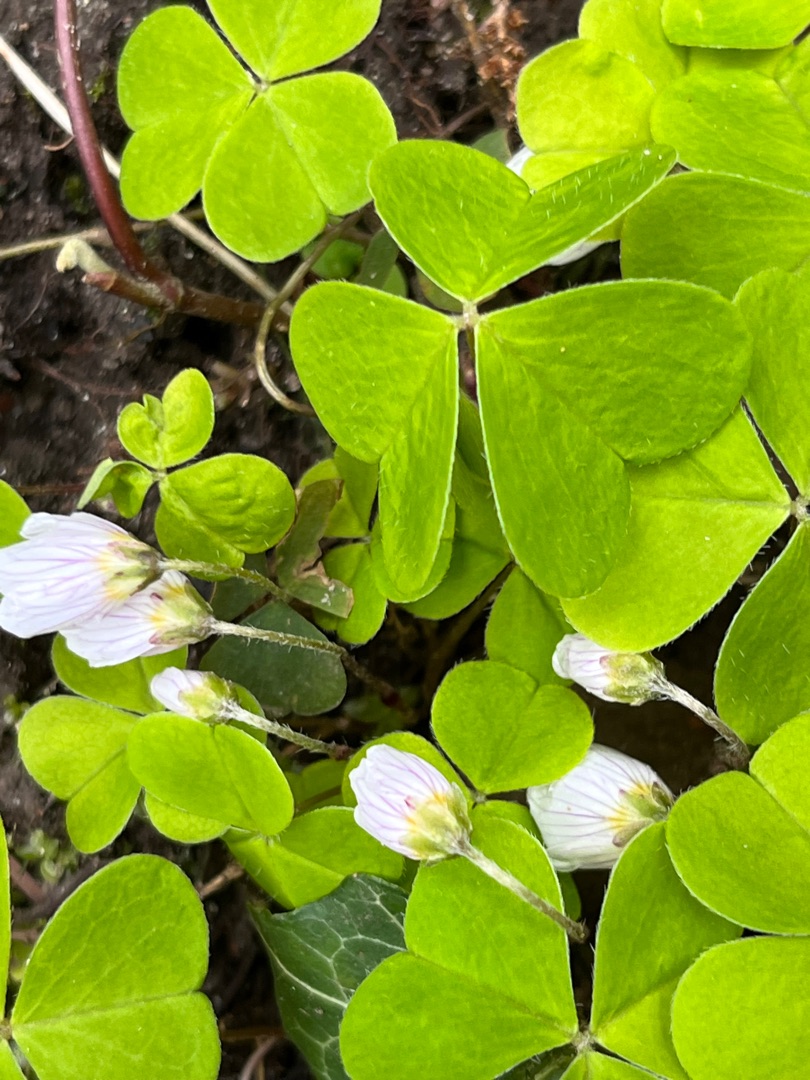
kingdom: Plantae
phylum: Tracheophyta
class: Magnoliopsida
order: Oxalidales
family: Oxalidaceae
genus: Oxalis
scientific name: Oxalis acetosella
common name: Skovsyre
